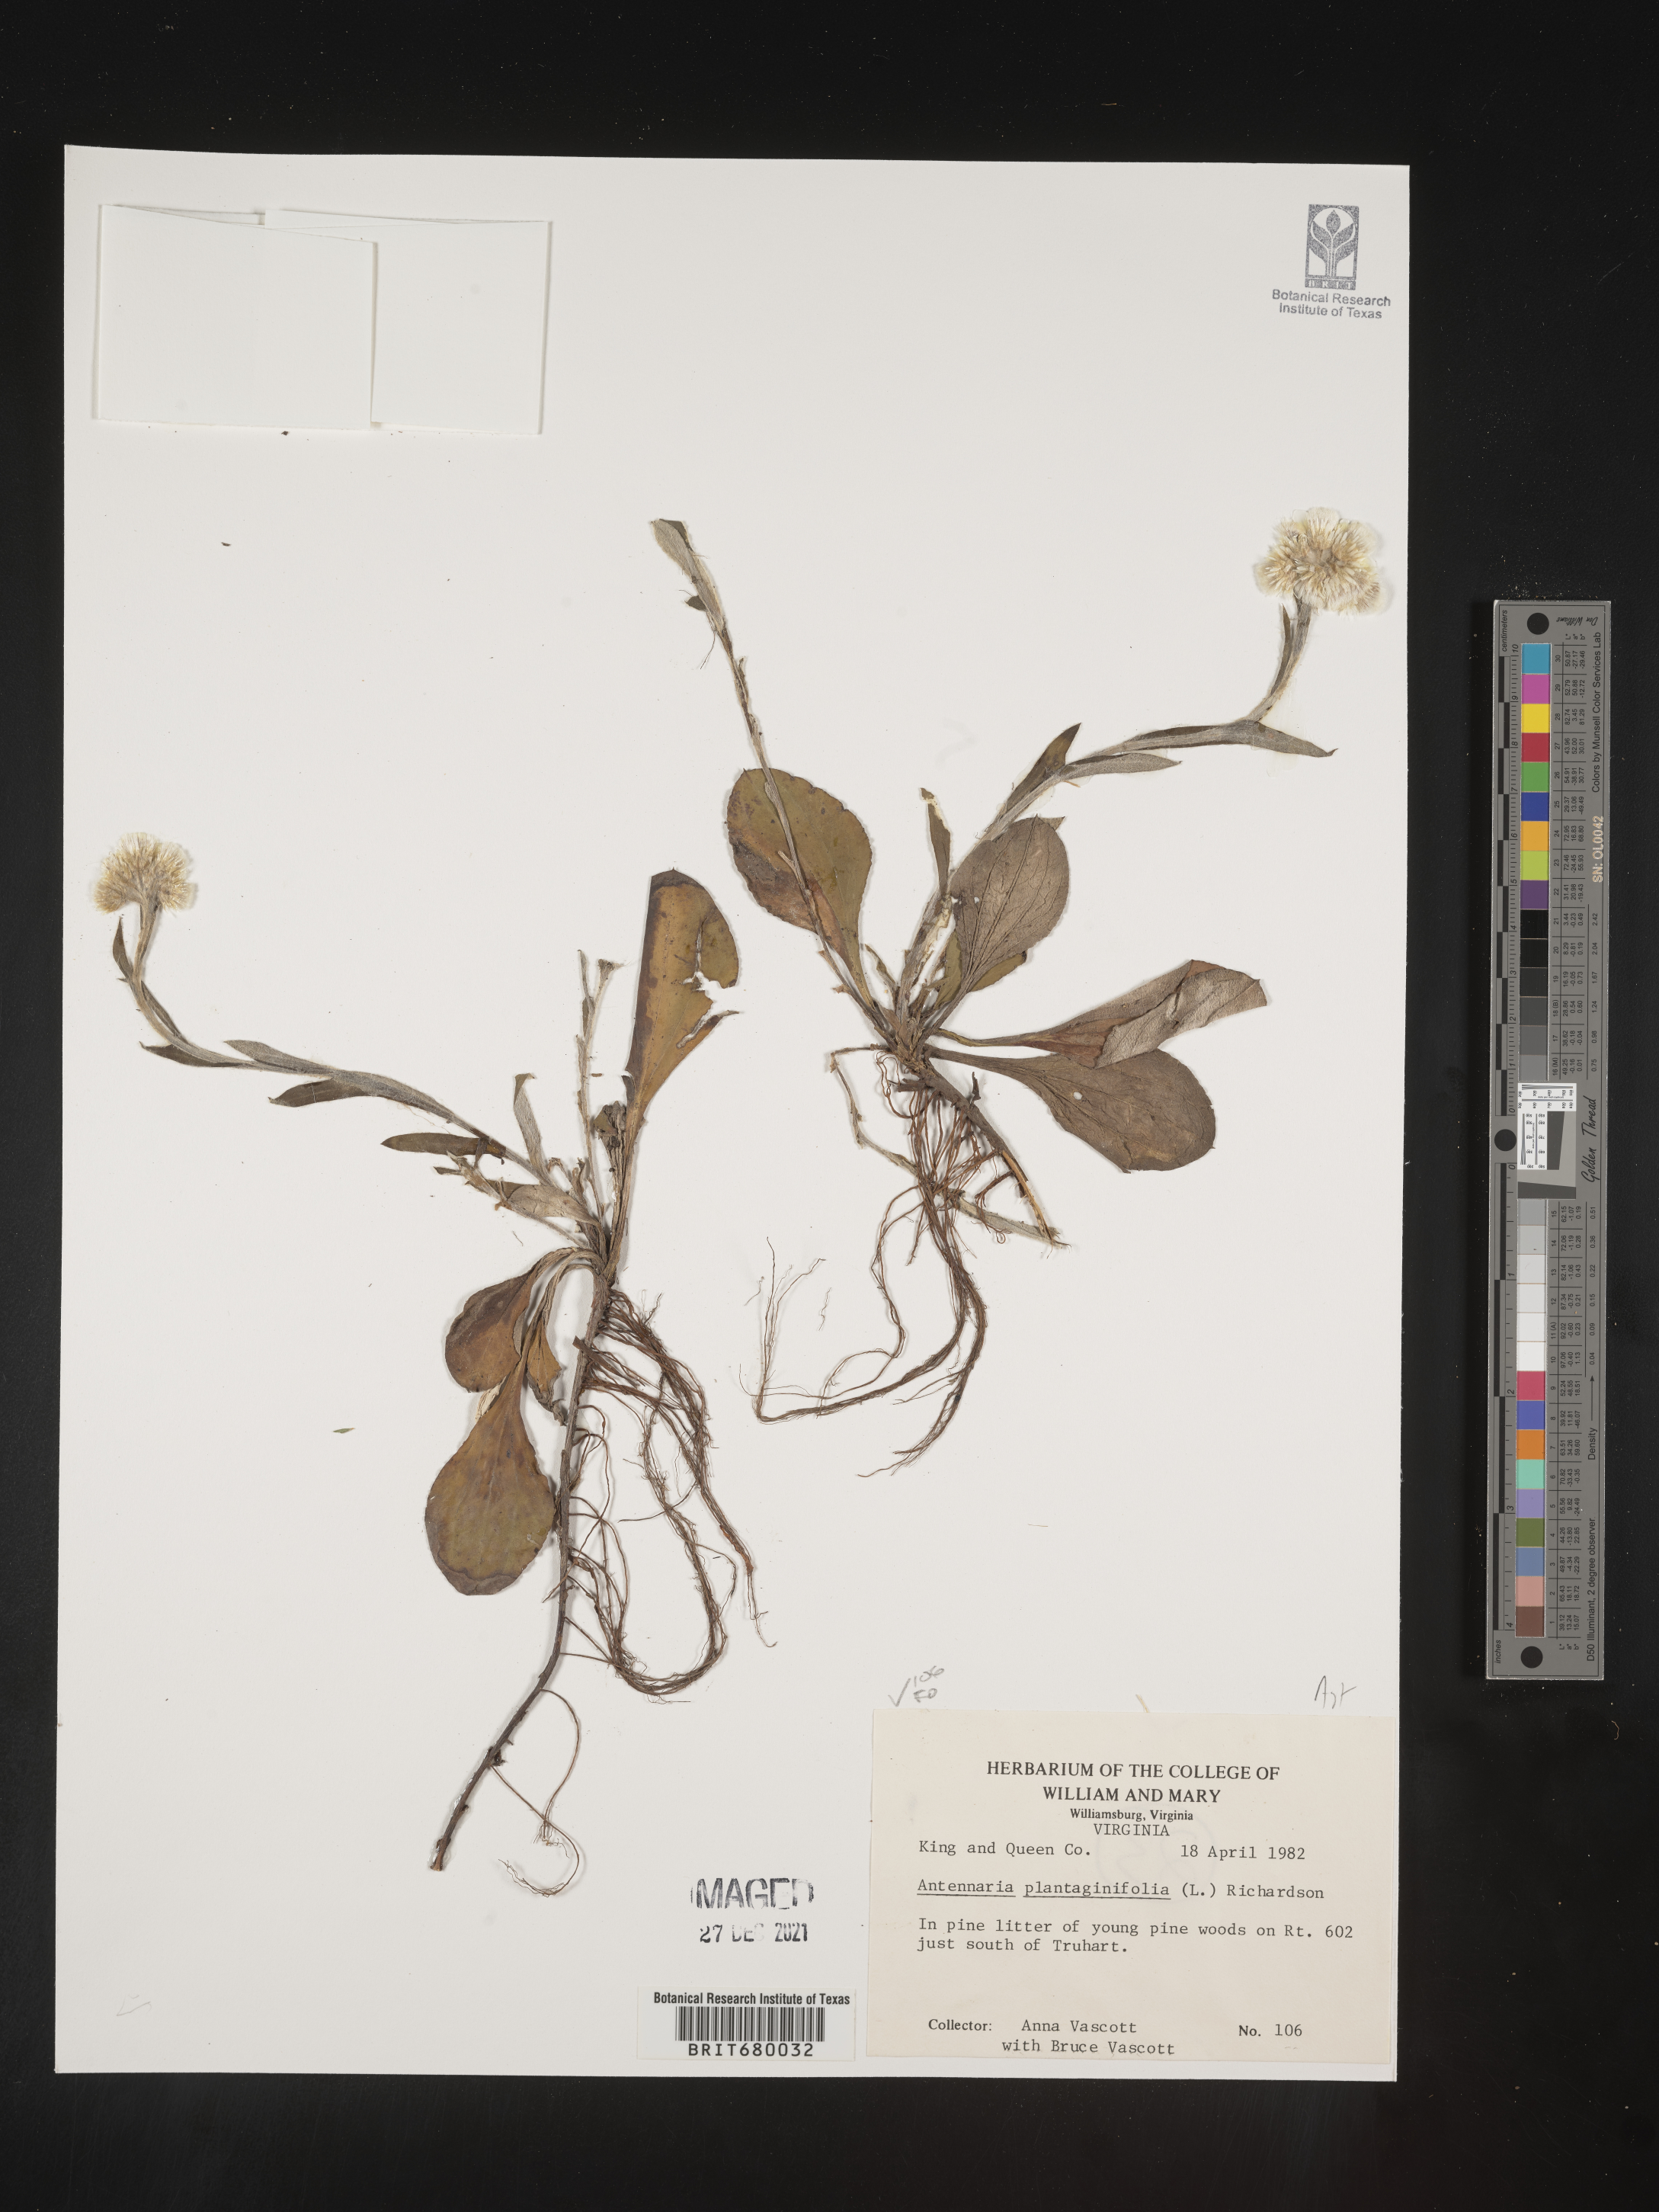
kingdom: Plantae
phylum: Tracheophyta
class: Magnoliopsida
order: Asterales
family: Asteraceae
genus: Antennaria
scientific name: Antennaria plantaginifolia
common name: Plantain-leaved pussytoes
